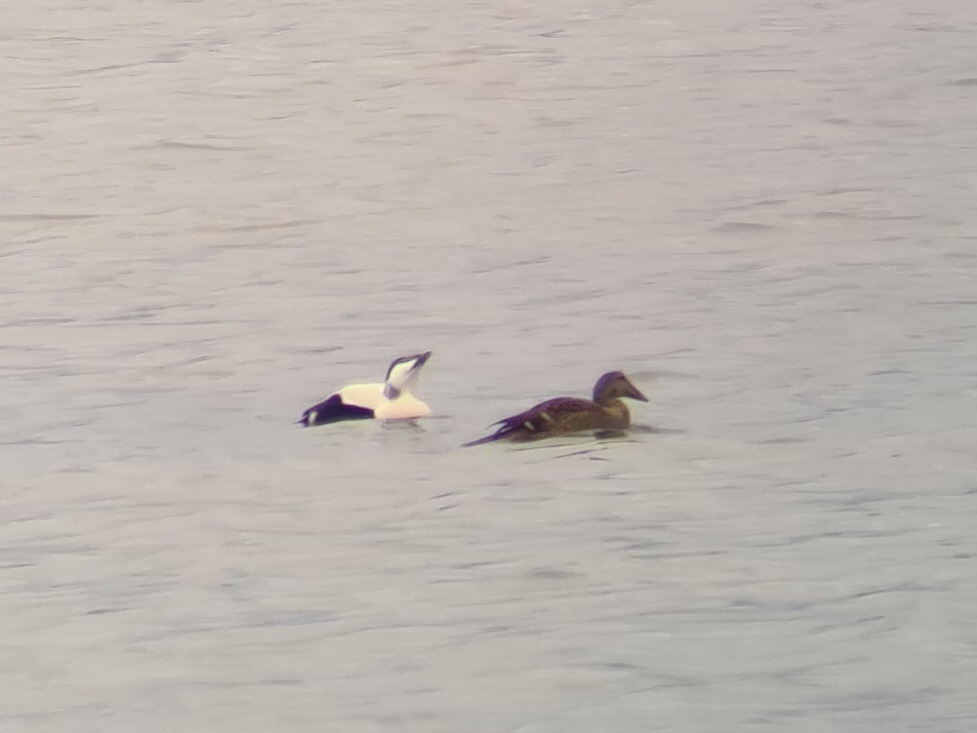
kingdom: Animalia
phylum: Chordata
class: Aves
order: Anseriformes
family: Anatidae
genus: Somateria
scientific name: Somateria mollissima
